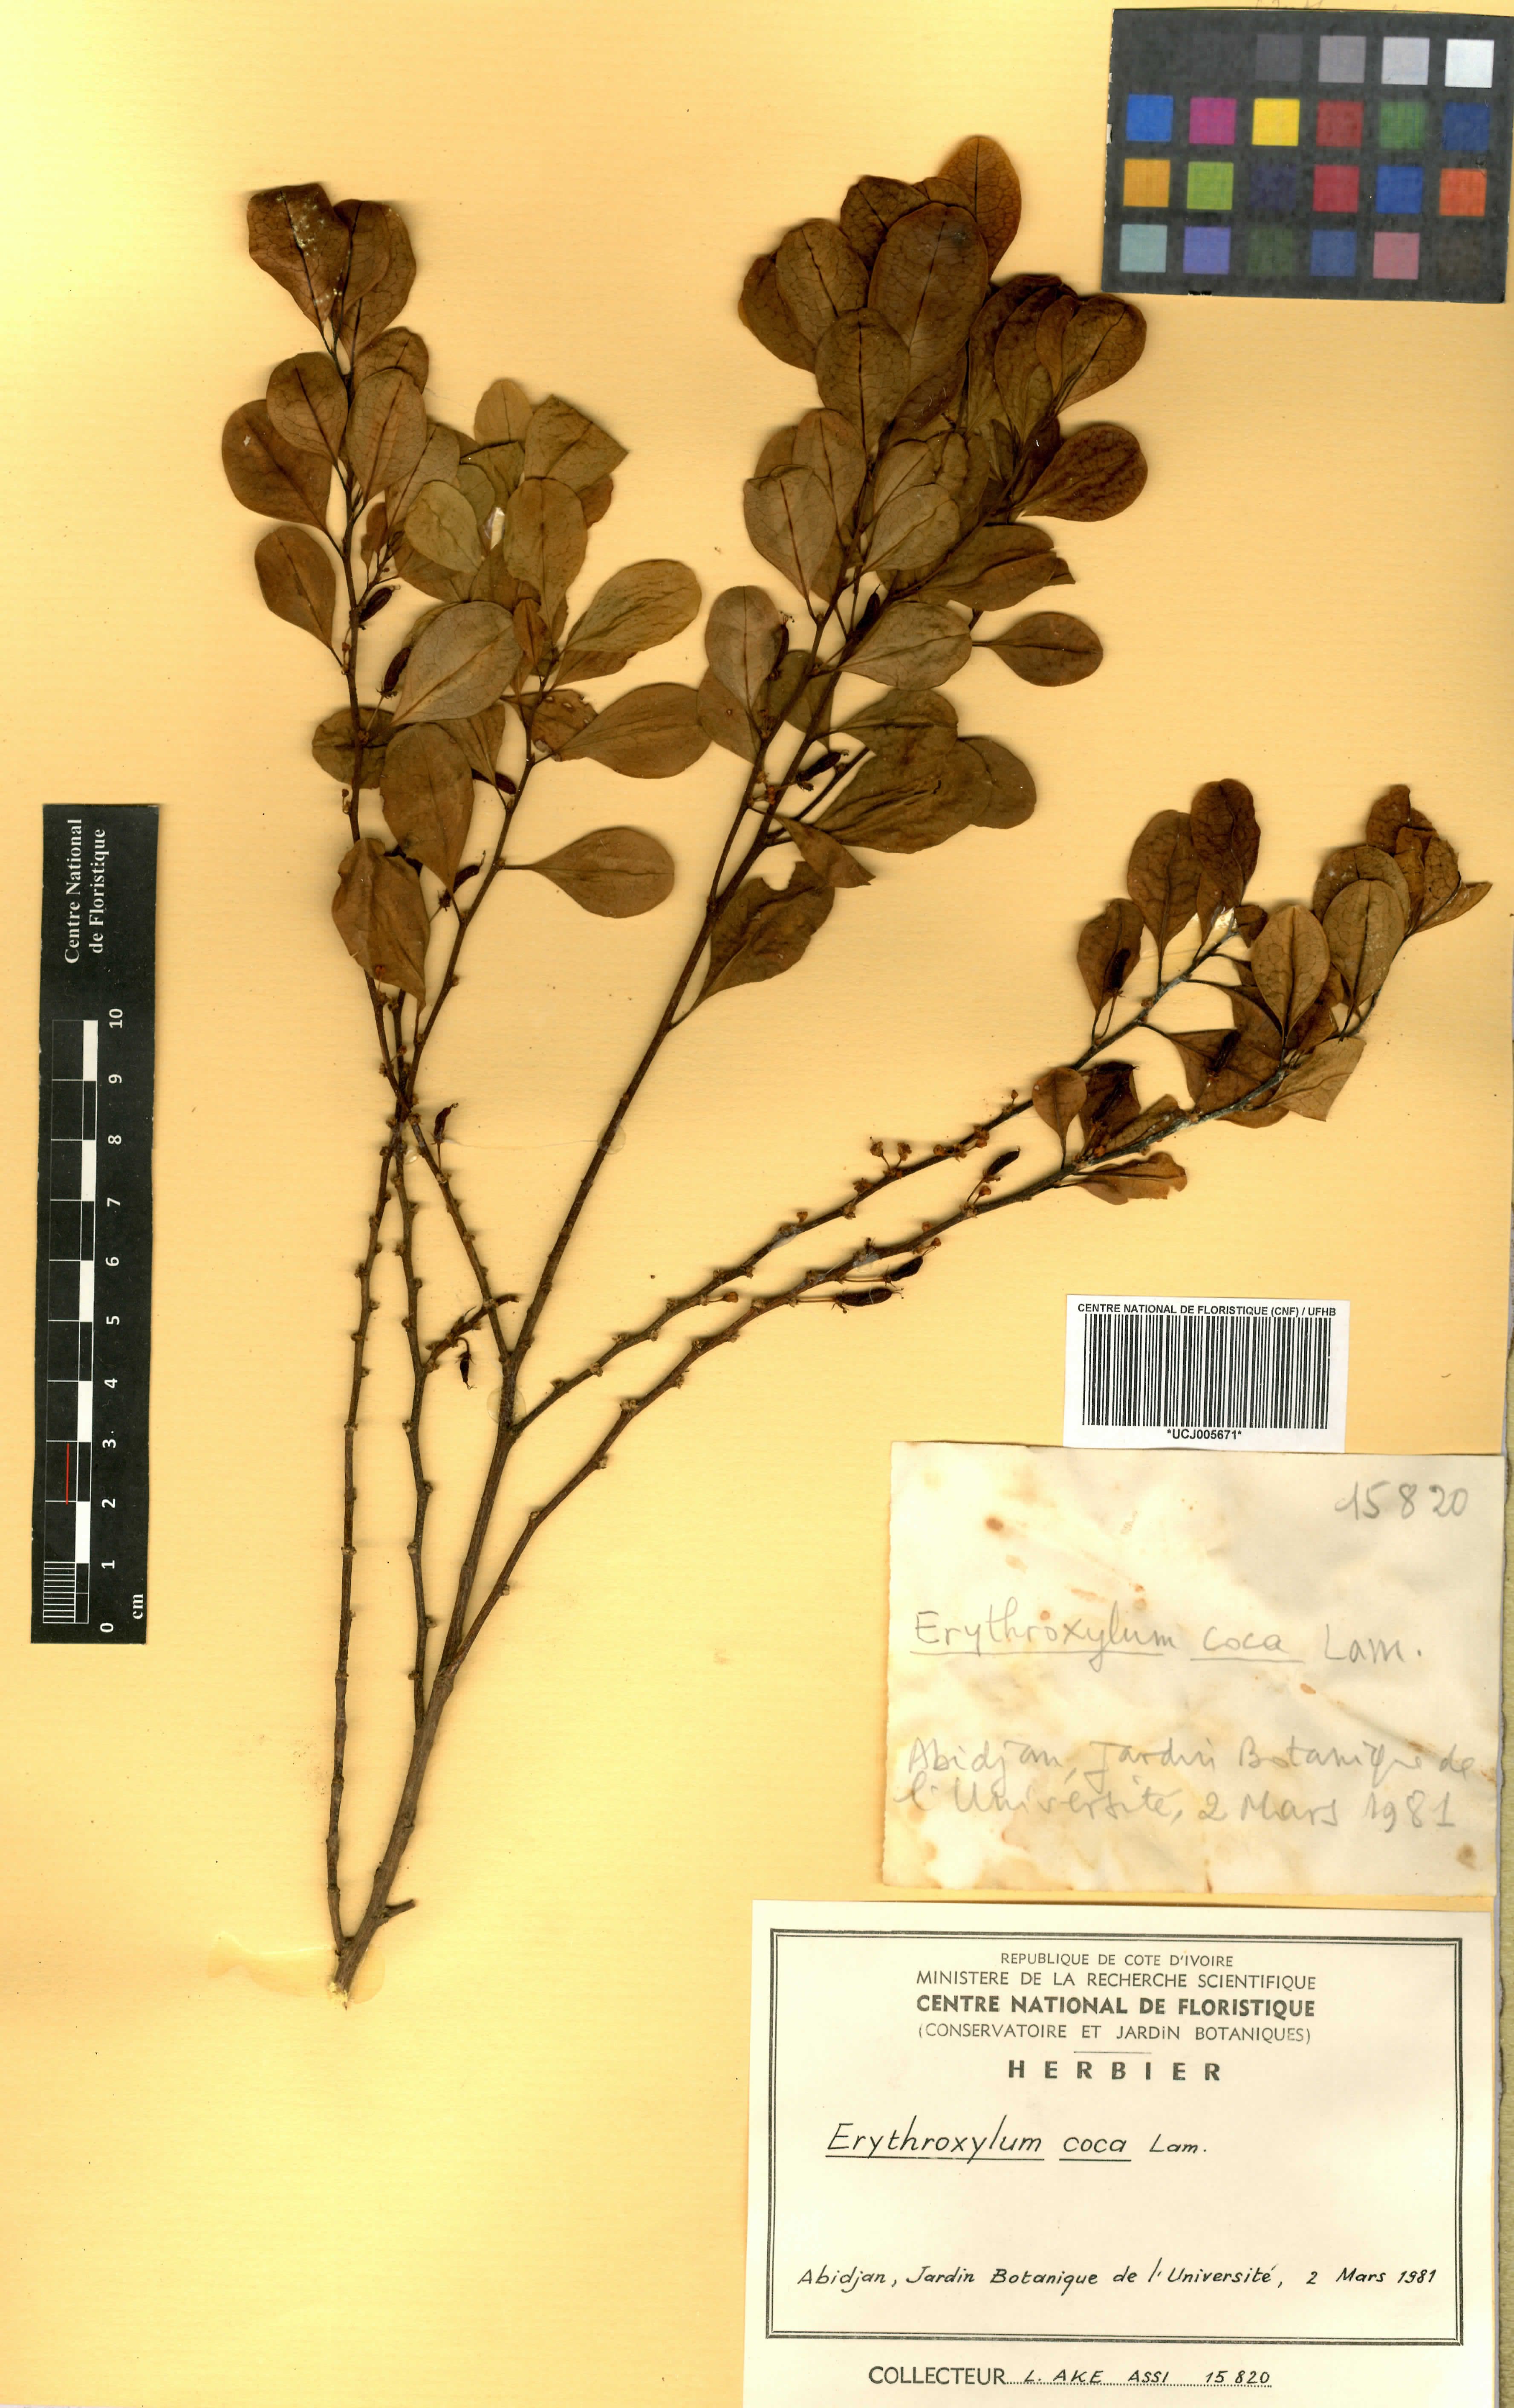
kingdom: Plantae
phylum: Tracheophyta
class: Magnoliopsida
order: Malpighiales
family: Erythroxylaceae
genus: Erythroxylum
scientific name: Erythroxylum coca
